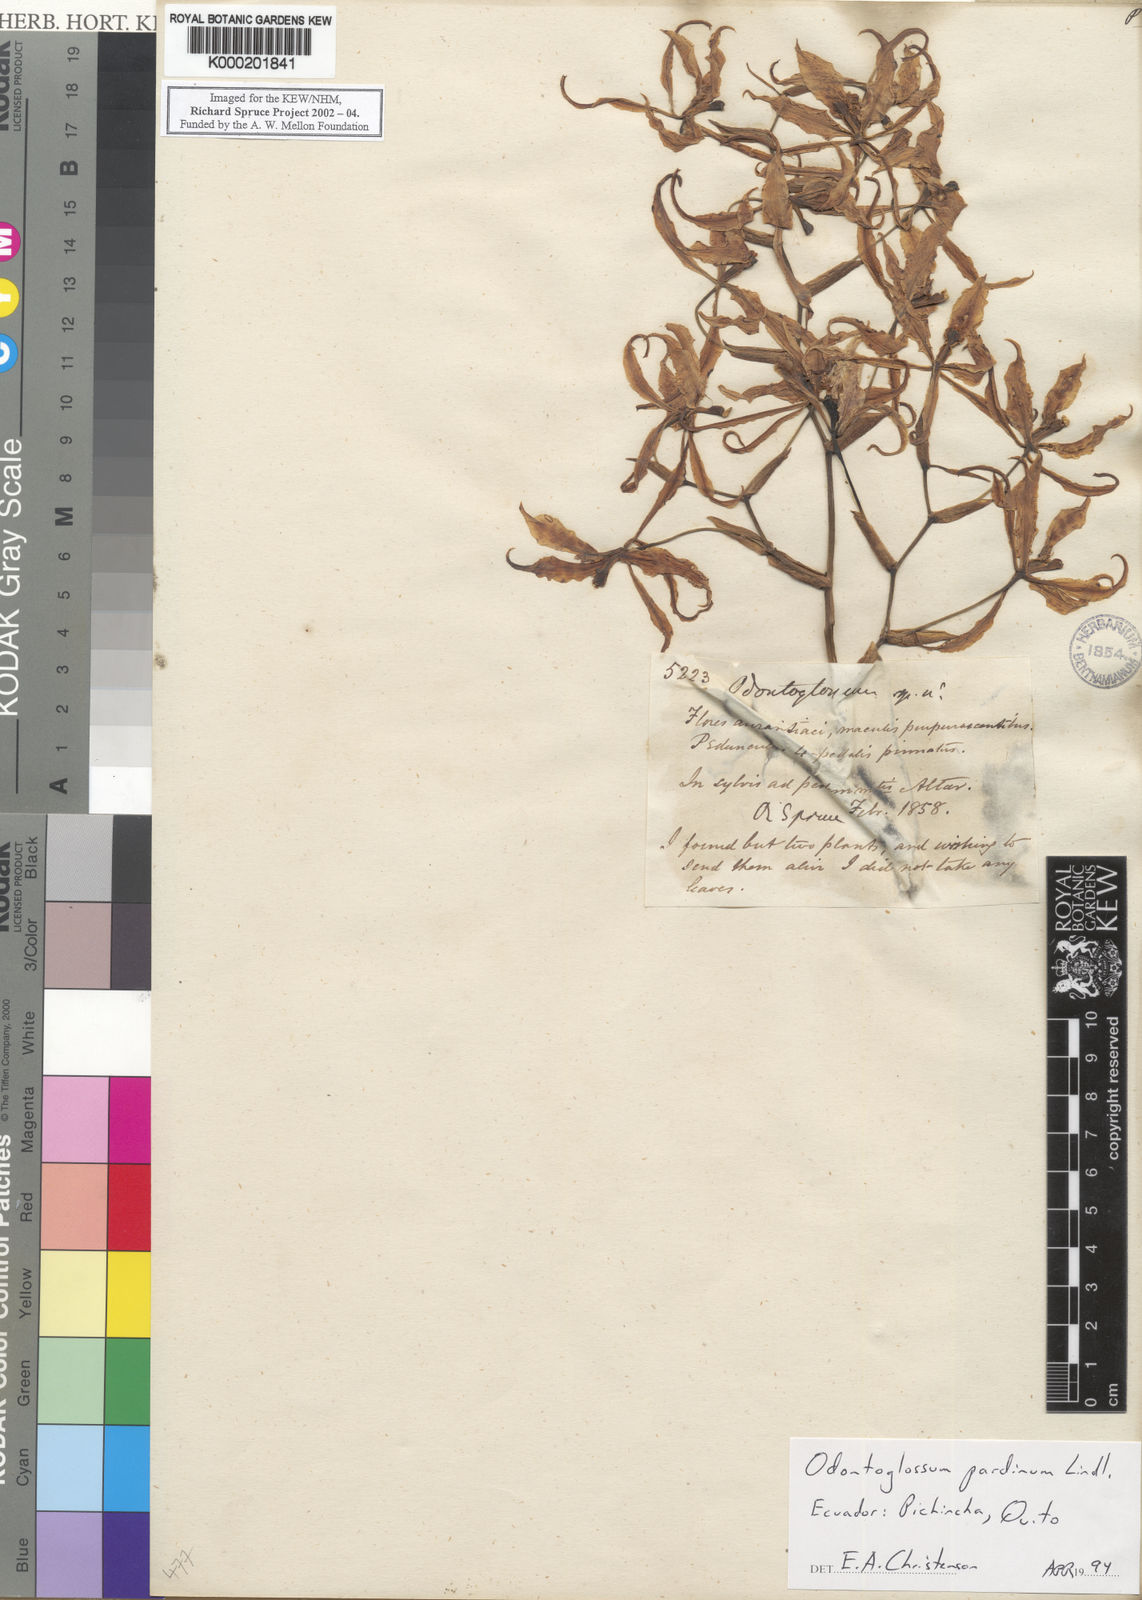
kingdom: Plantae
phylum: Tracheophyta
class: Liliopsida
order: Asparagales
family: Orchidaceae
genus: Cyrtochilum
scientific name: Cyrtochilum pardinum
